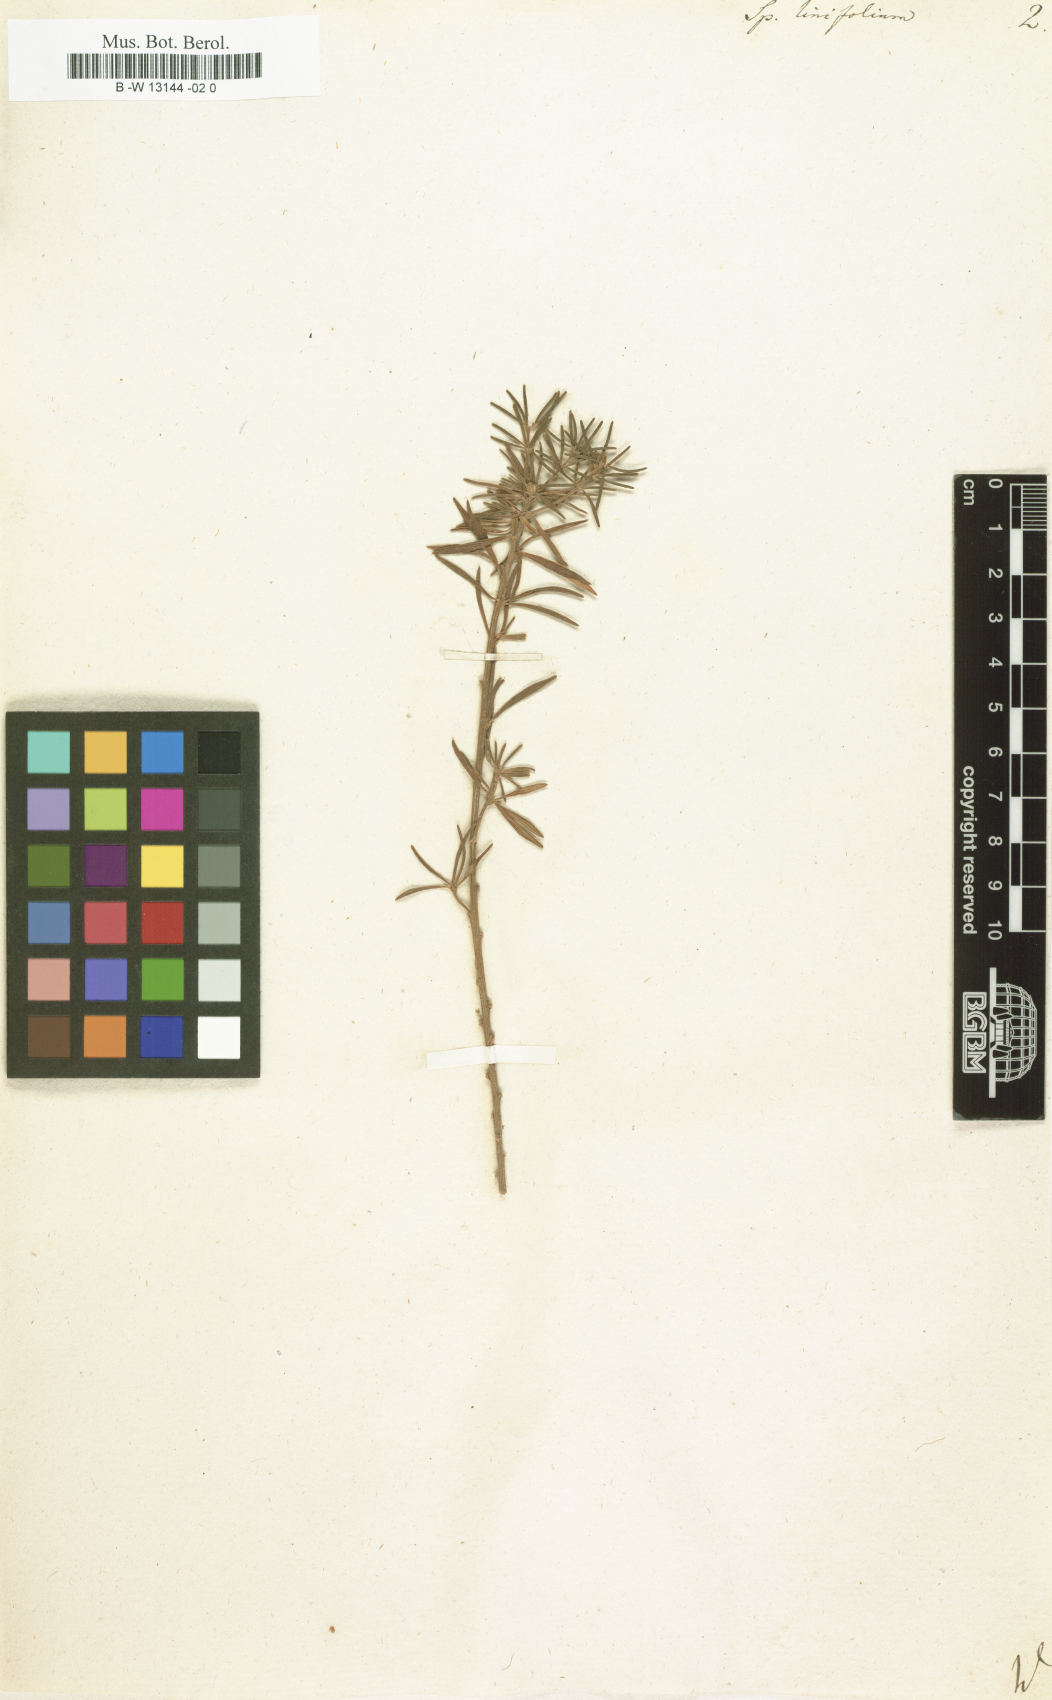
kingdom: Plantae
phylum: Tracheophyta
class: Magnoliopsida
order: Fabales
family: Fabaceae
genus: Genista
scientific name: Genista linifolia
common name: Mediterranean broom
